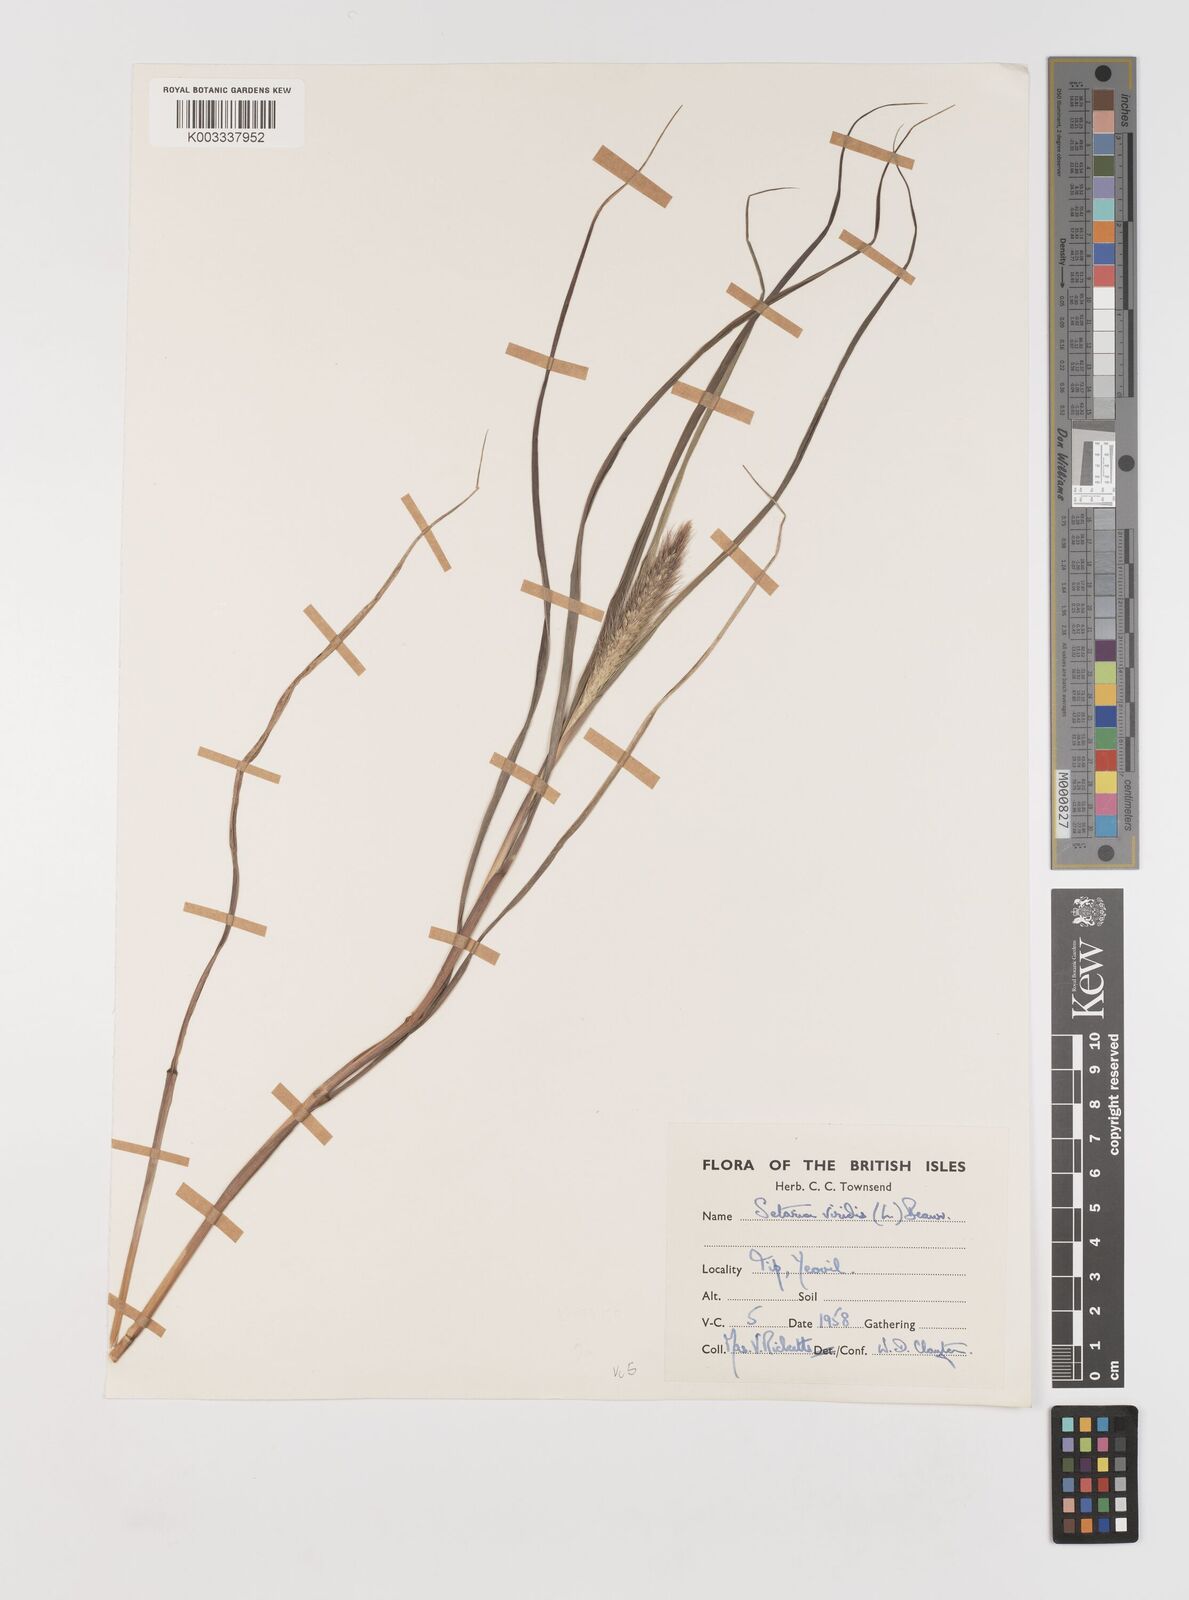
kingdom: Plantae
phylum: Tracheophyta
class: Liliopsida
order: Poales
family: Poaceae
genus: Setaria
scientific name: Setaria italica
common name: Foxtail bristle-grass
